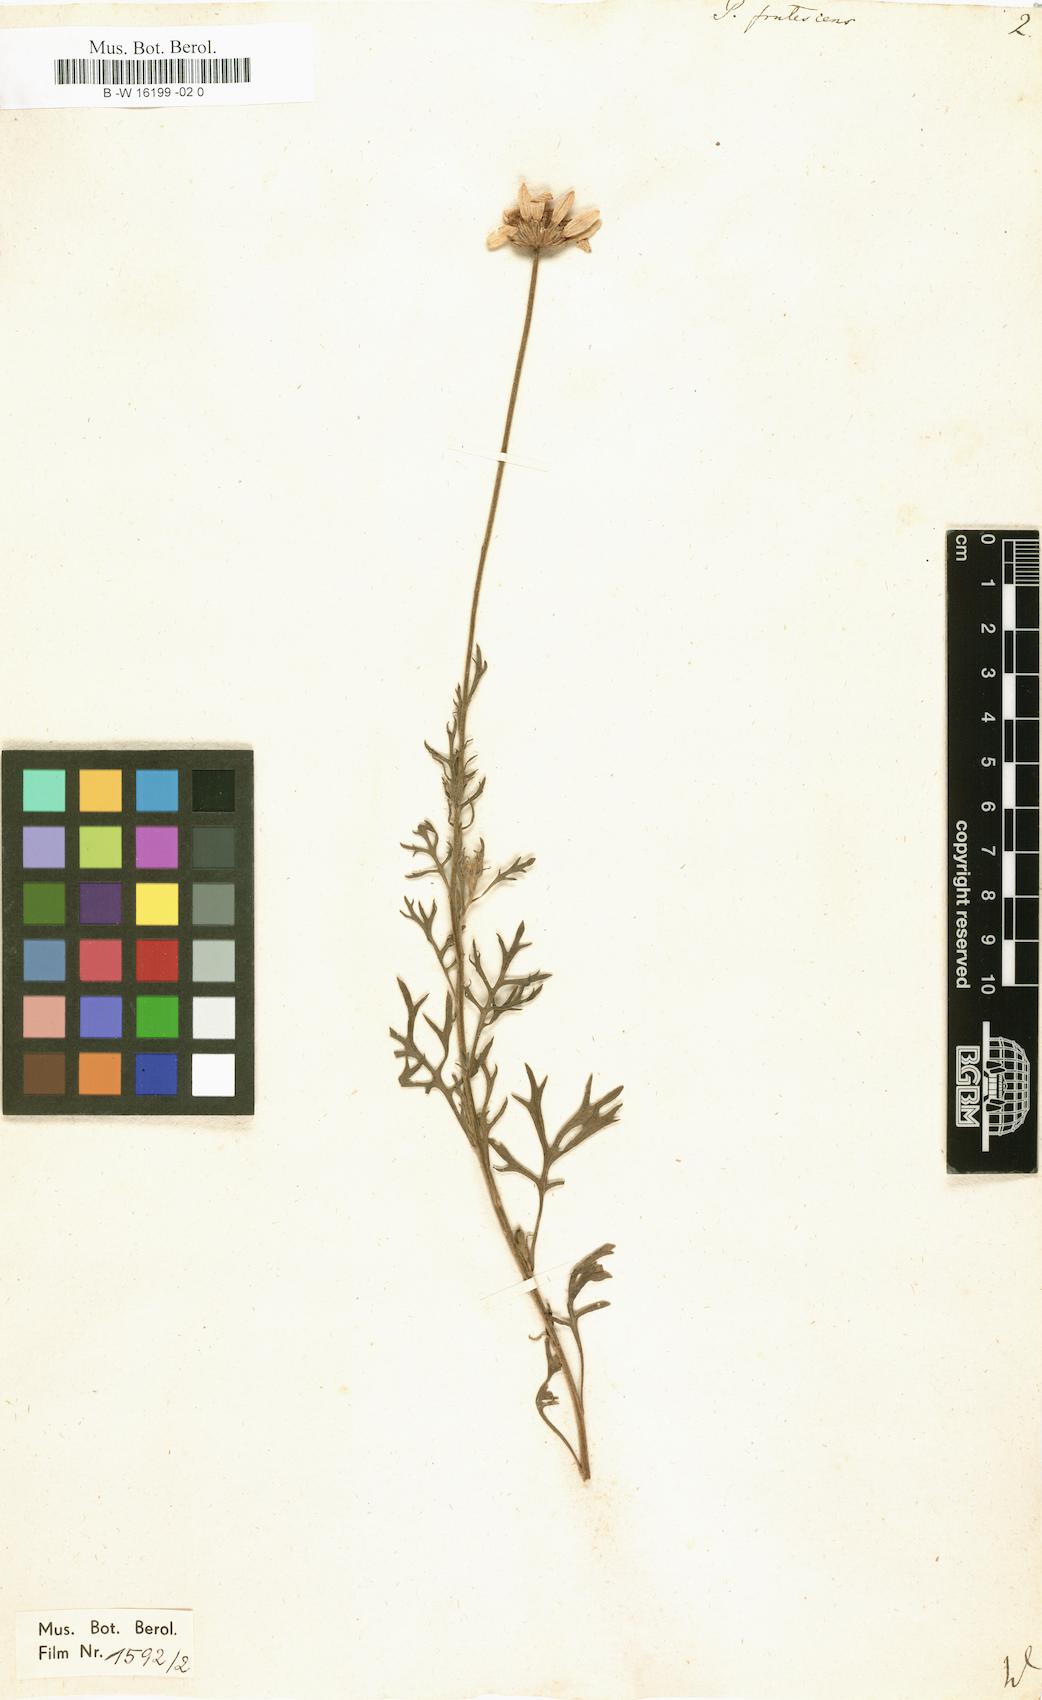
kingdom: Plantae
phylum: Tracheophyta
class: Magnoliopsida
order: Asterales
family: Asteraceae
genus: Argyranthemum
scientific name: Argyranthemum frutescens
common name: Paris daisy
